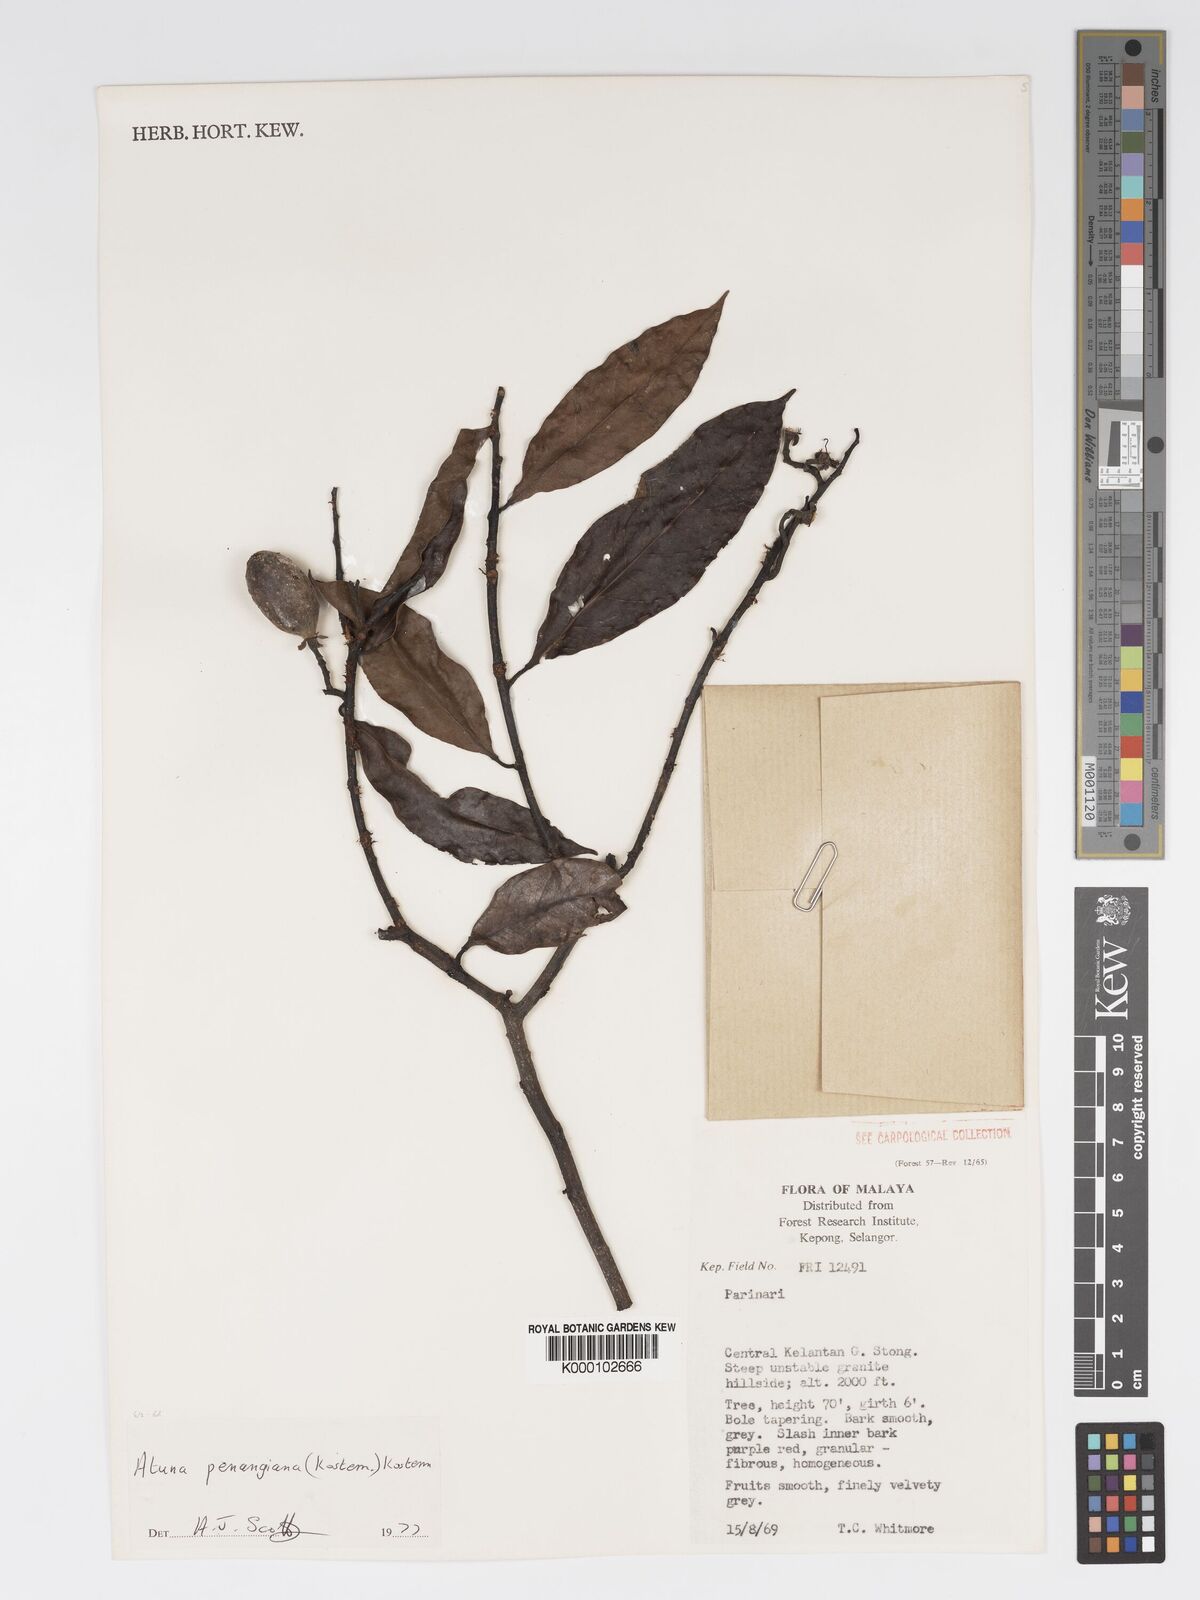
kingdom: Plantae
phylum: Tracheophyta
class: Magnoliopsida
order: Malpighiales
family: Chrysobalanaceae
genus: Atuna
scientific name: Atuna penangiana
